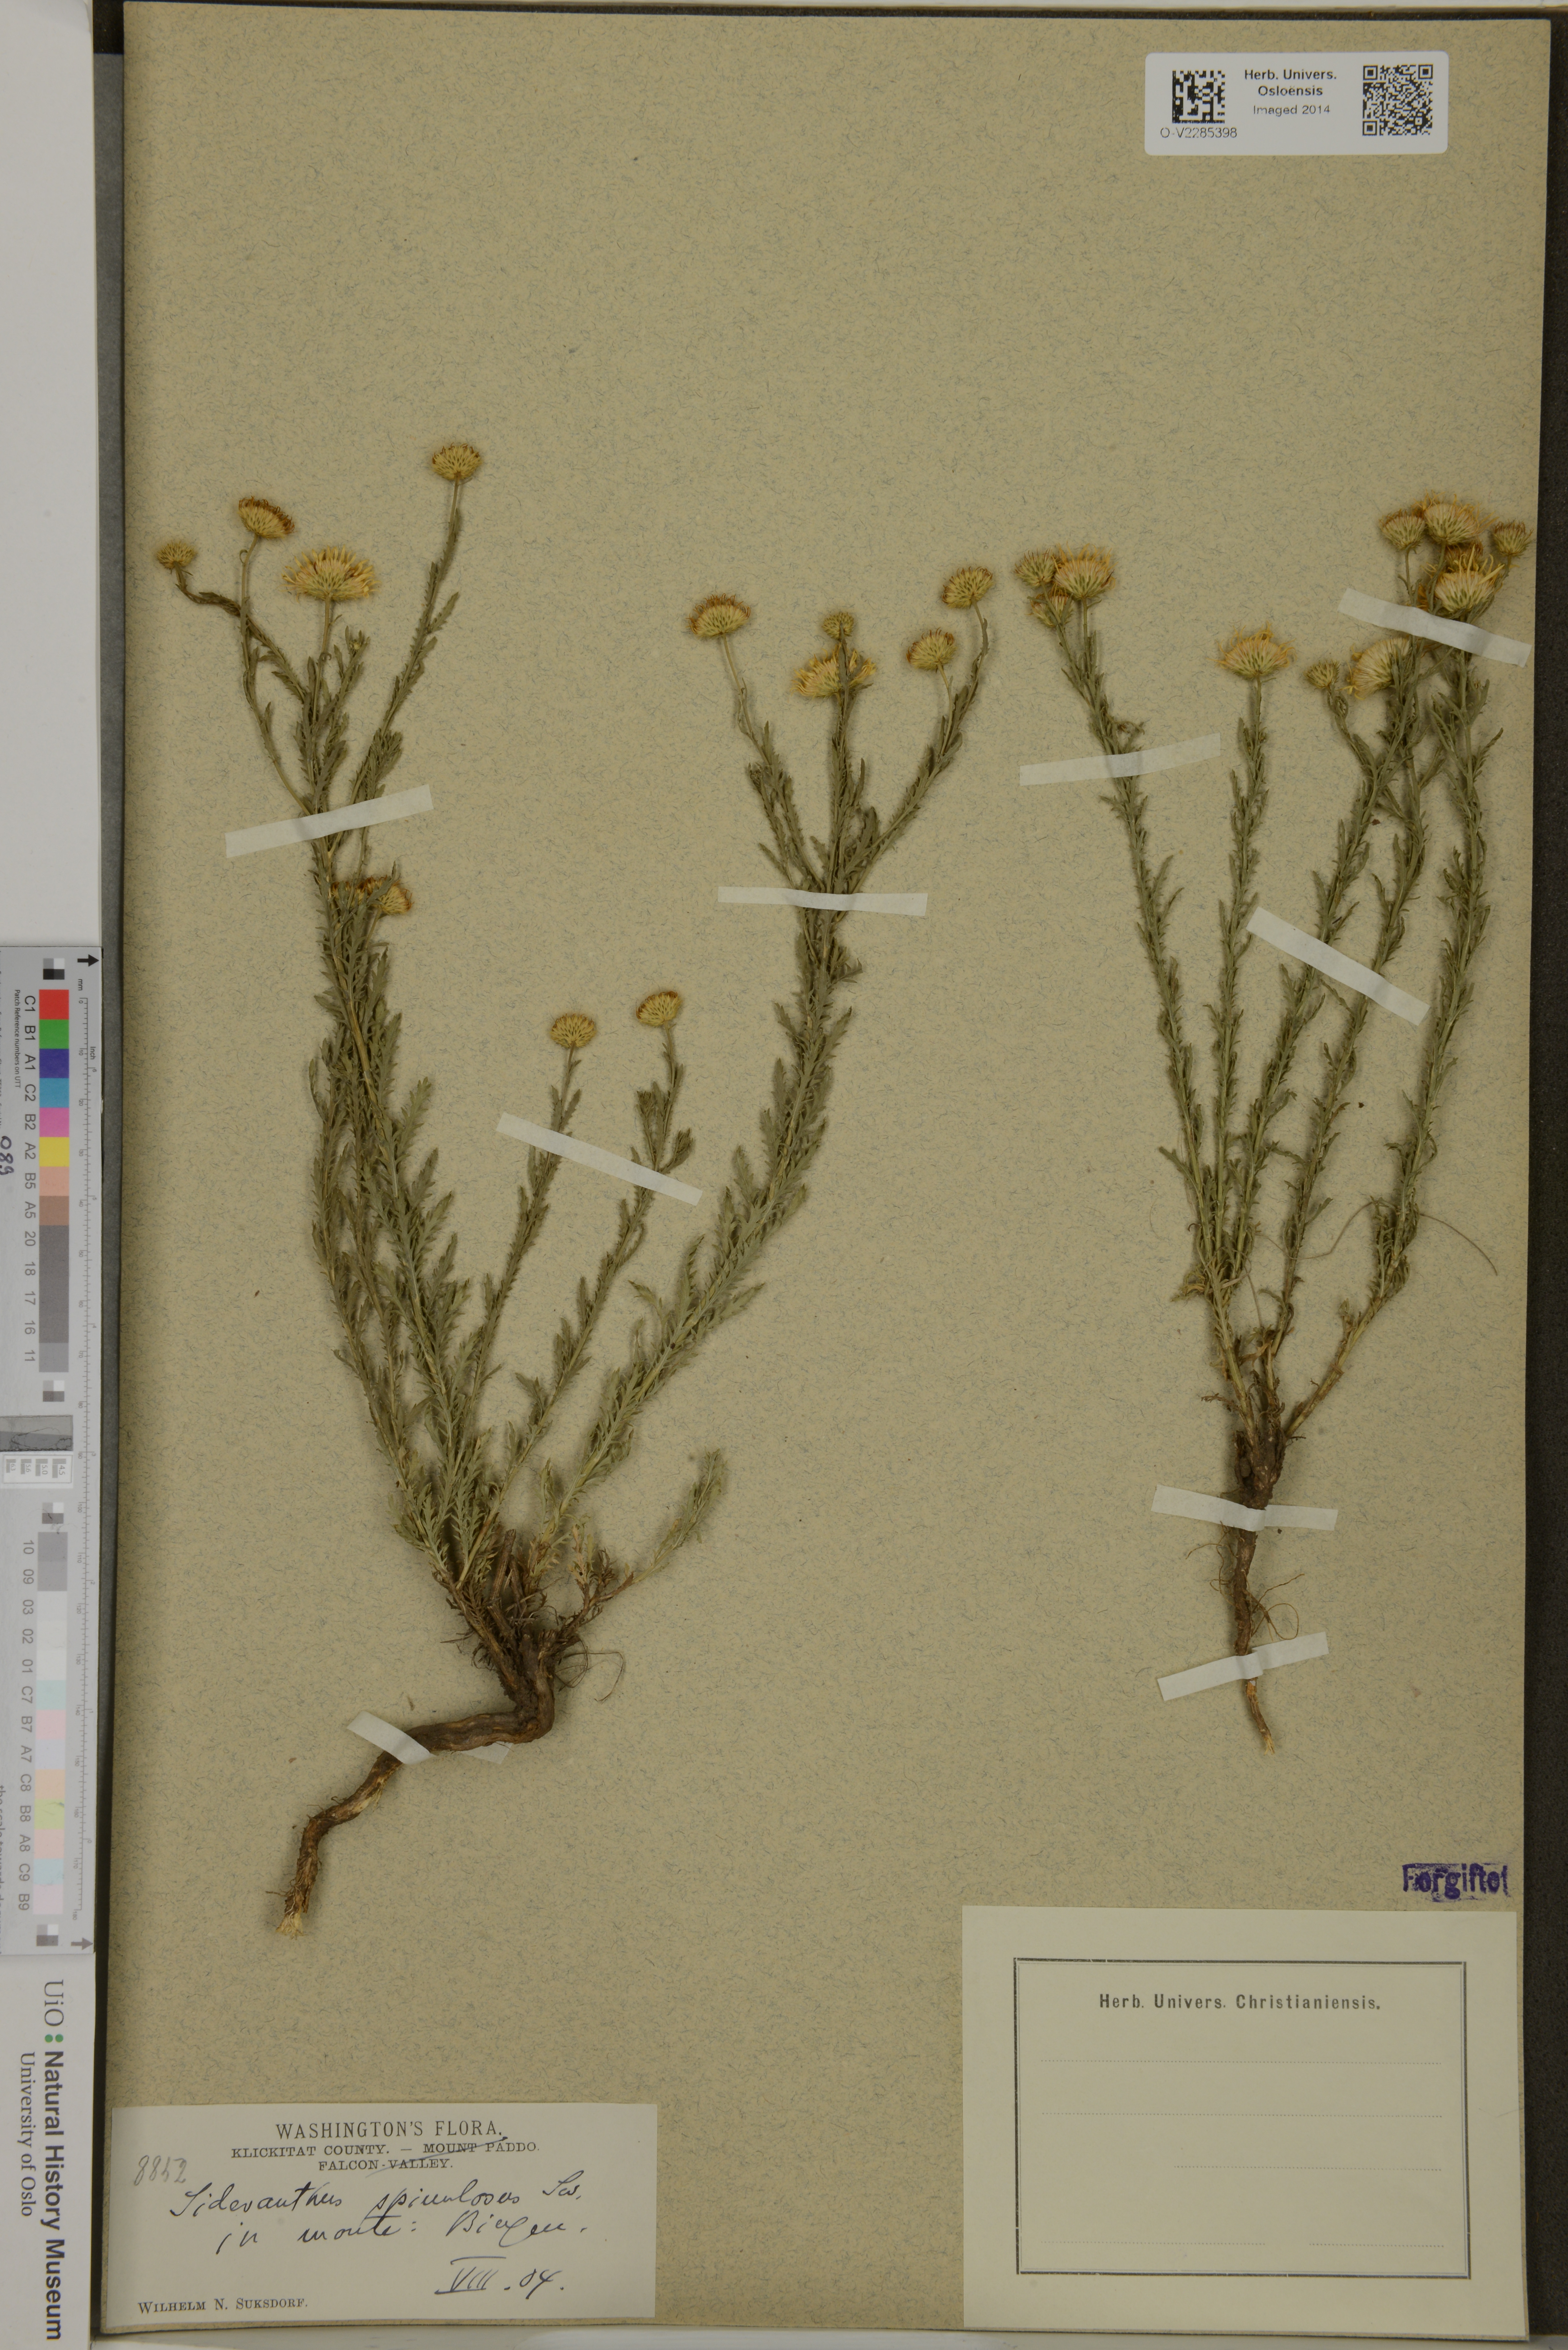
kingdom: Plantae
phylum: Tracheophyta
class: Magnoliopsida
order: Asterales
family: Asteraceae
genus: Xanthisma
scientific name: Xanthisma spinulosum
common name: Spiny goldenweed
